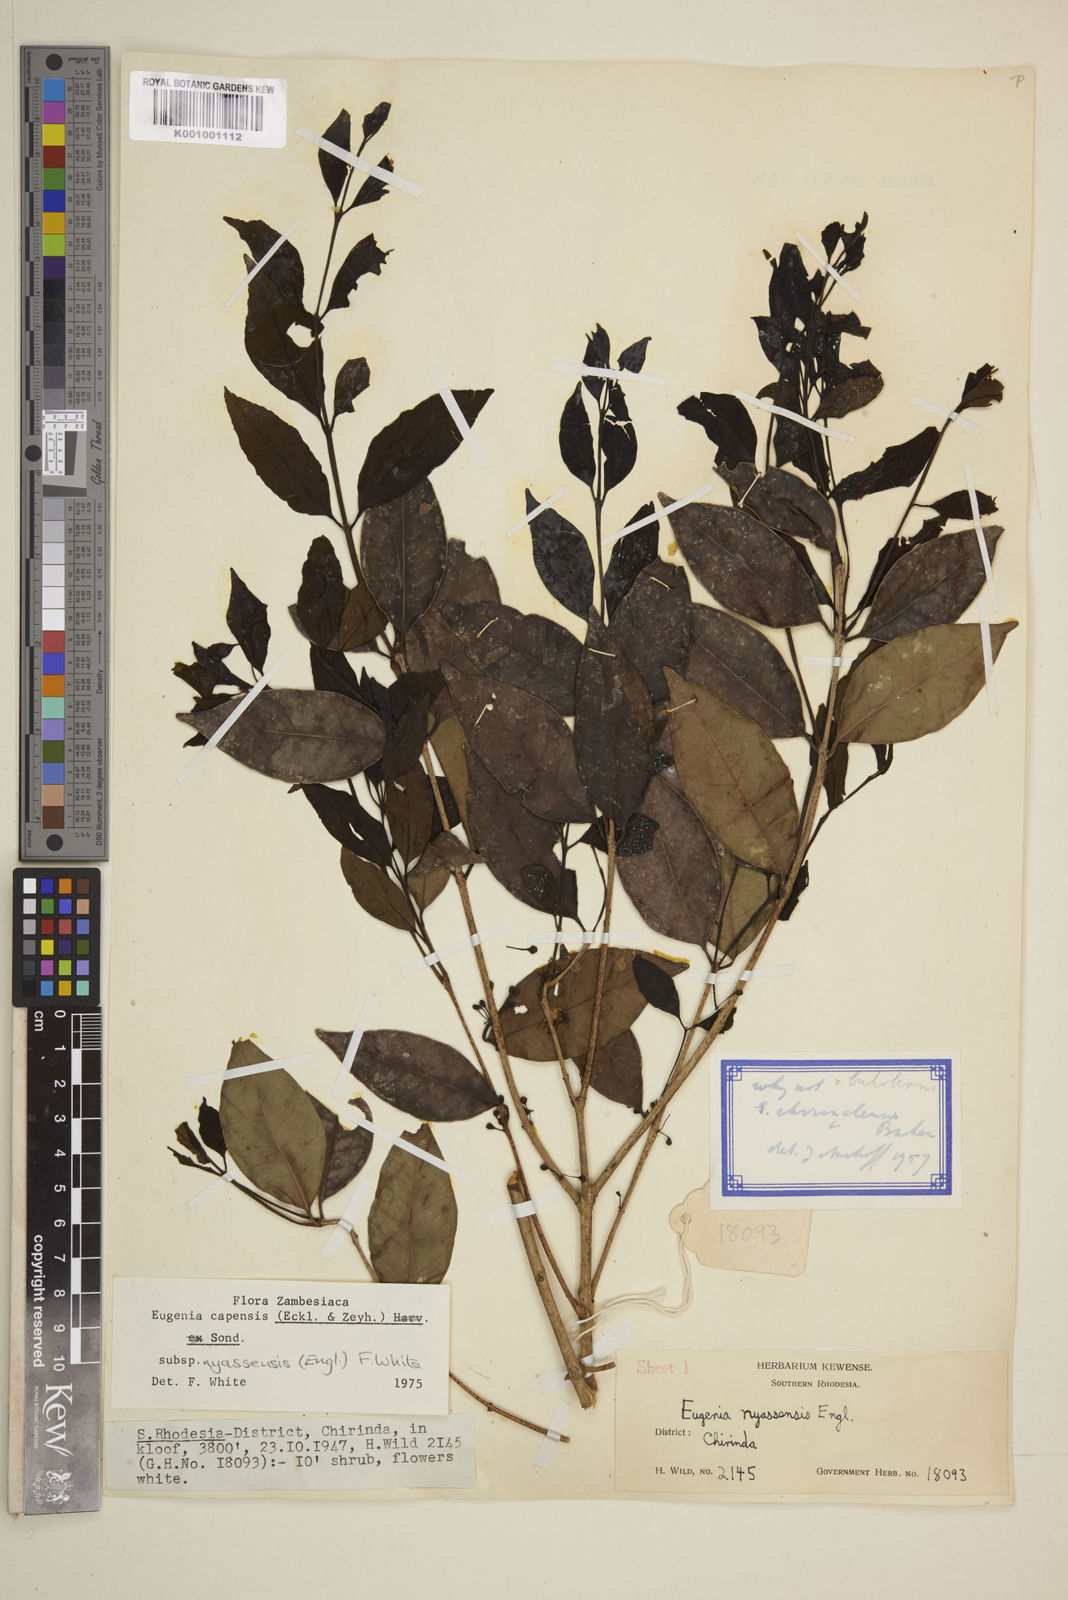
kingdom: Plantae
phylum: Tracheophyta
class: Magnoliopsida
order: Myrtales
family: Myrtaceae
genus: Eugenia
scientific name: Eugenia capensis
